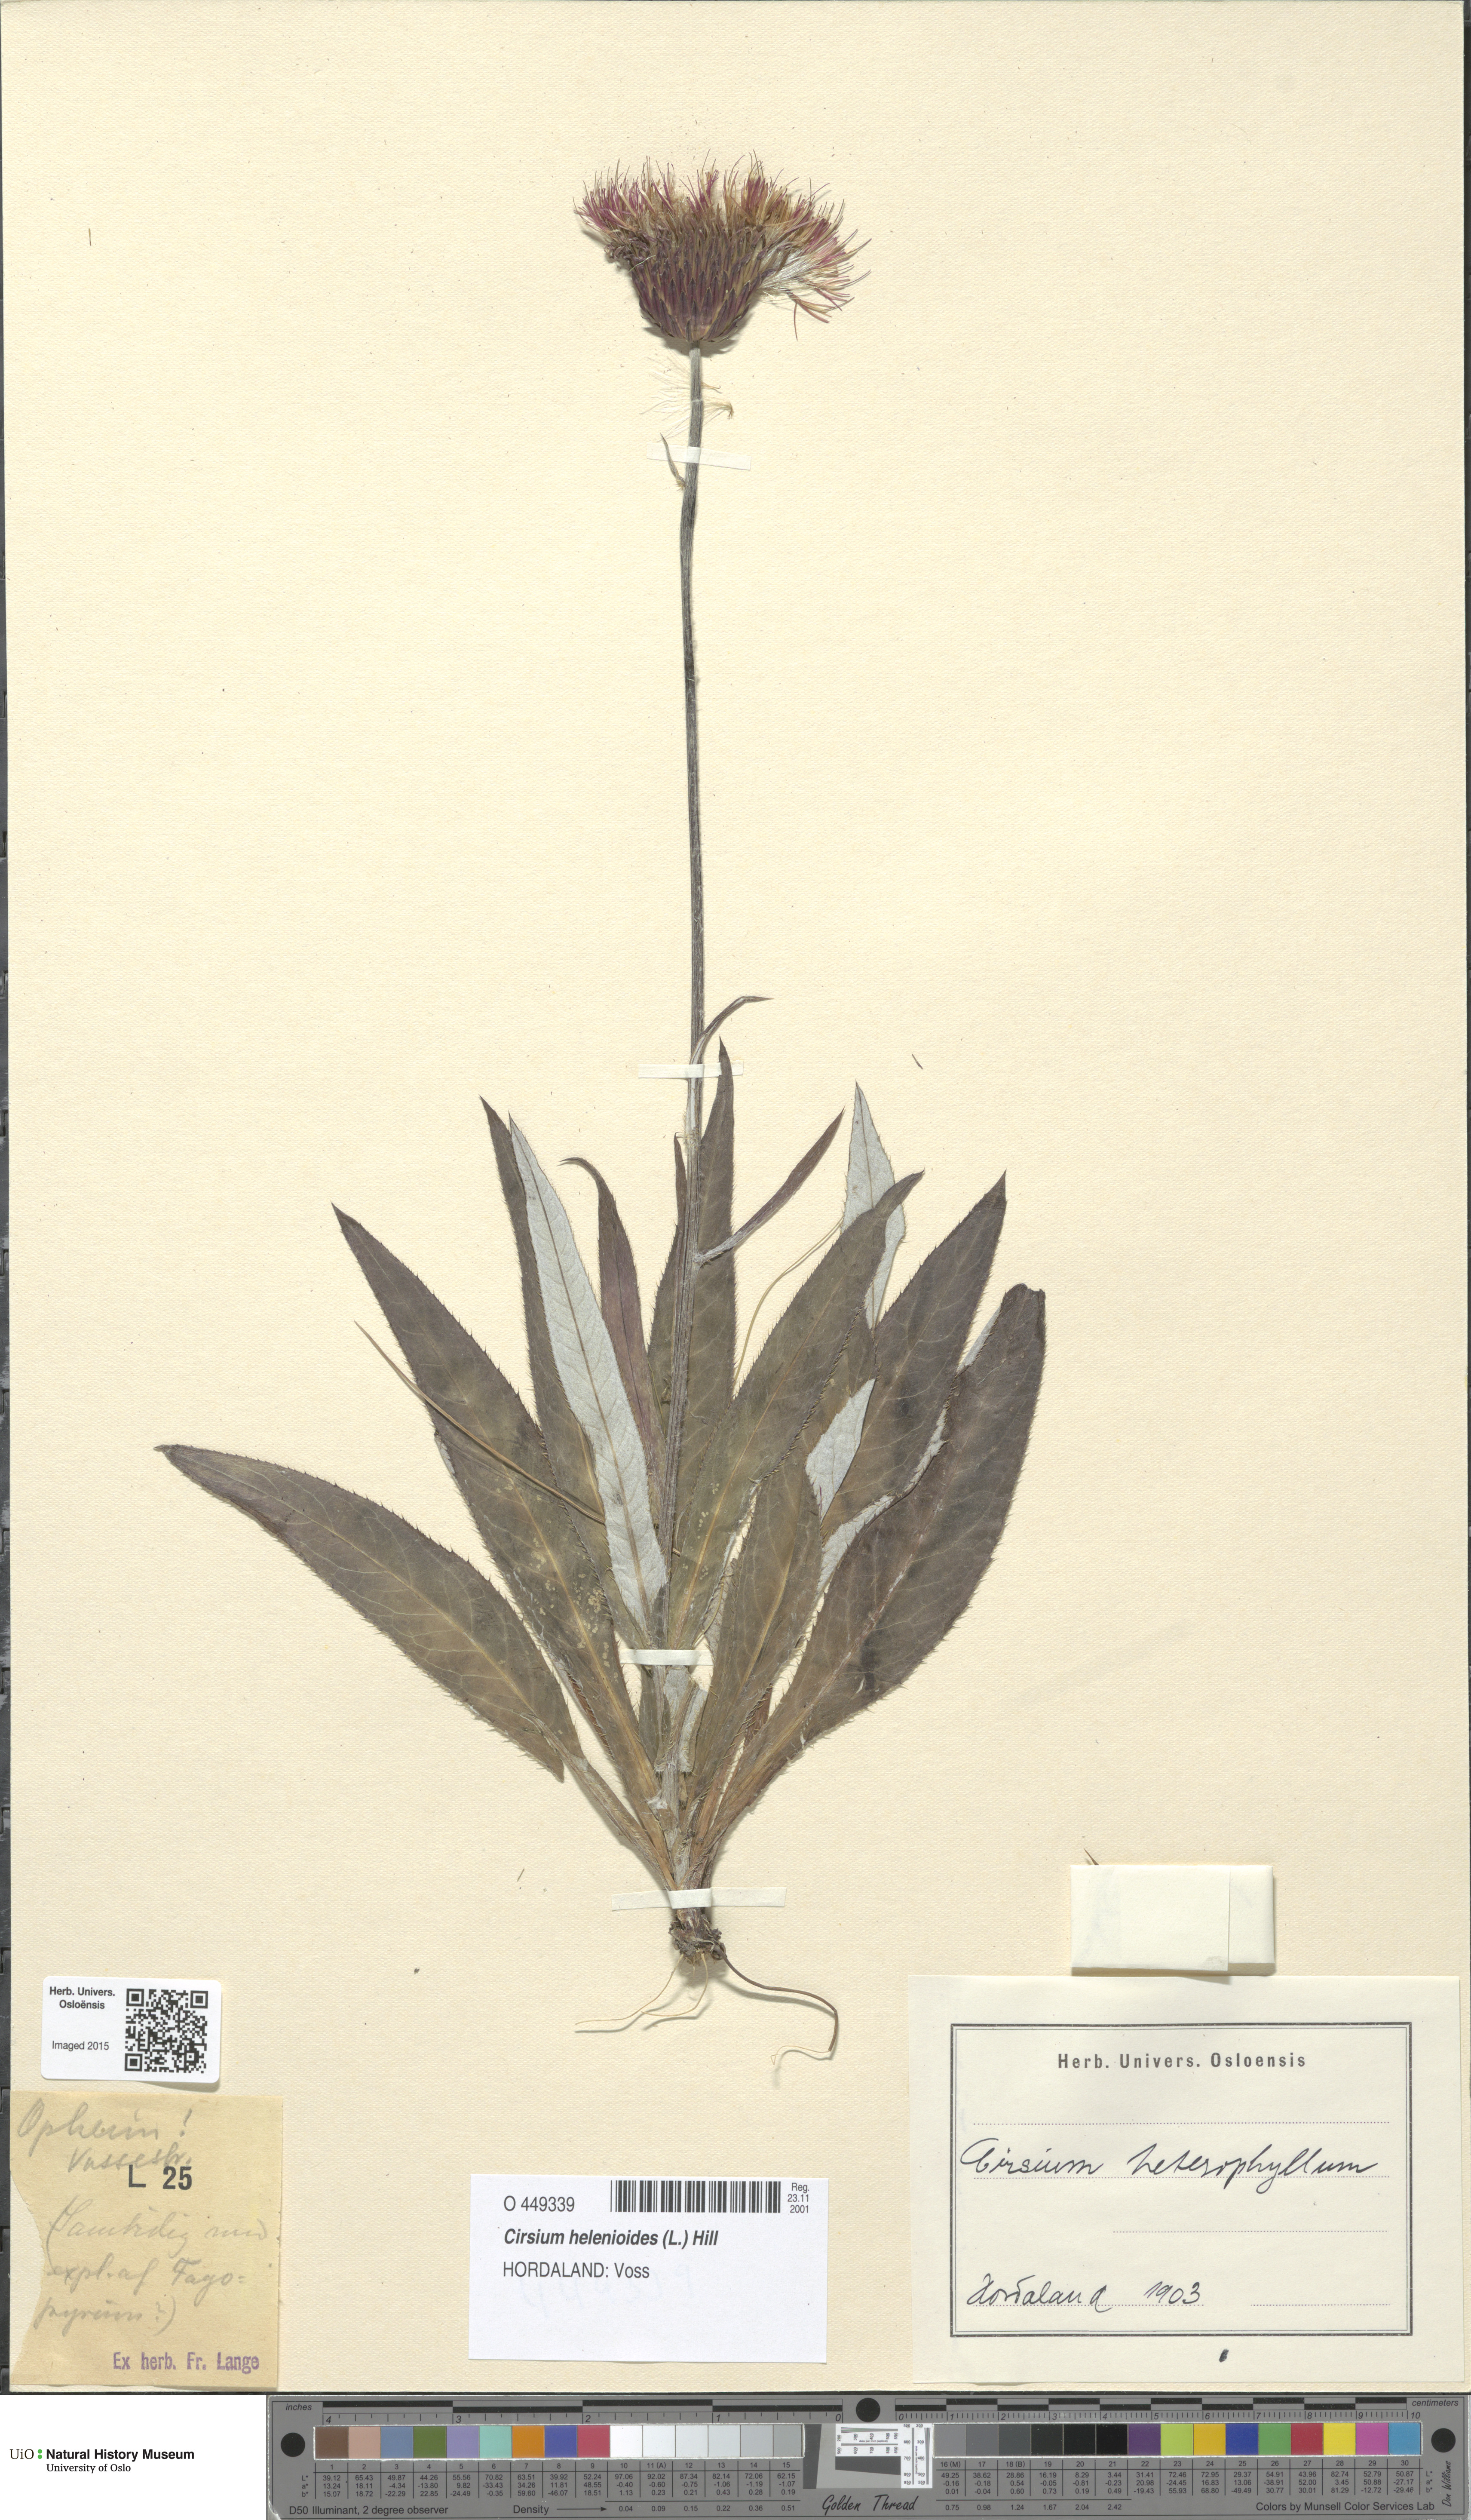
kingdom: Plantae
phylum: Tracheophyta
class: Magnoliopsida
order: Asterales
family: Asteraceae
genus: Cirsium
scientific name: Cirsium heterophyllum
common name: Melancholy thistle
